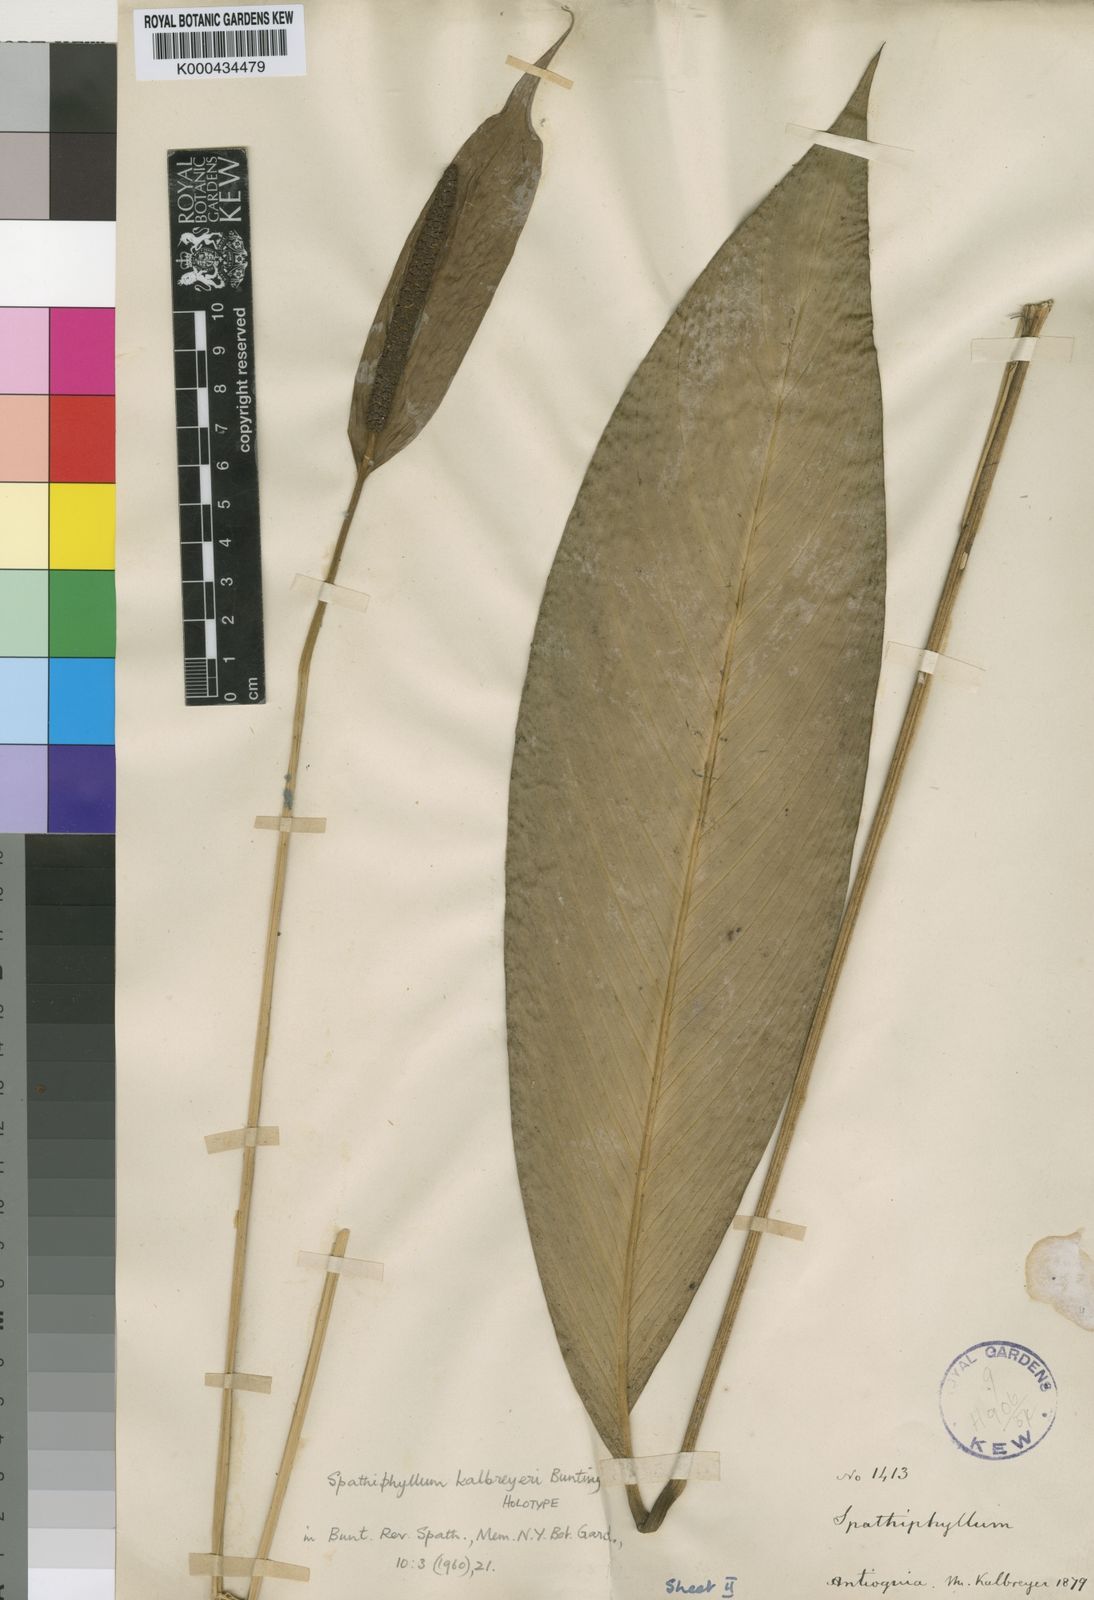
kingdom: Plantae
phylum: Tracheophyta
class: Liliopsida
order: Alismatales
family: Araceae
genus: Spathiphyllum
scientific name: Spathiphyllum kalbreyeri
